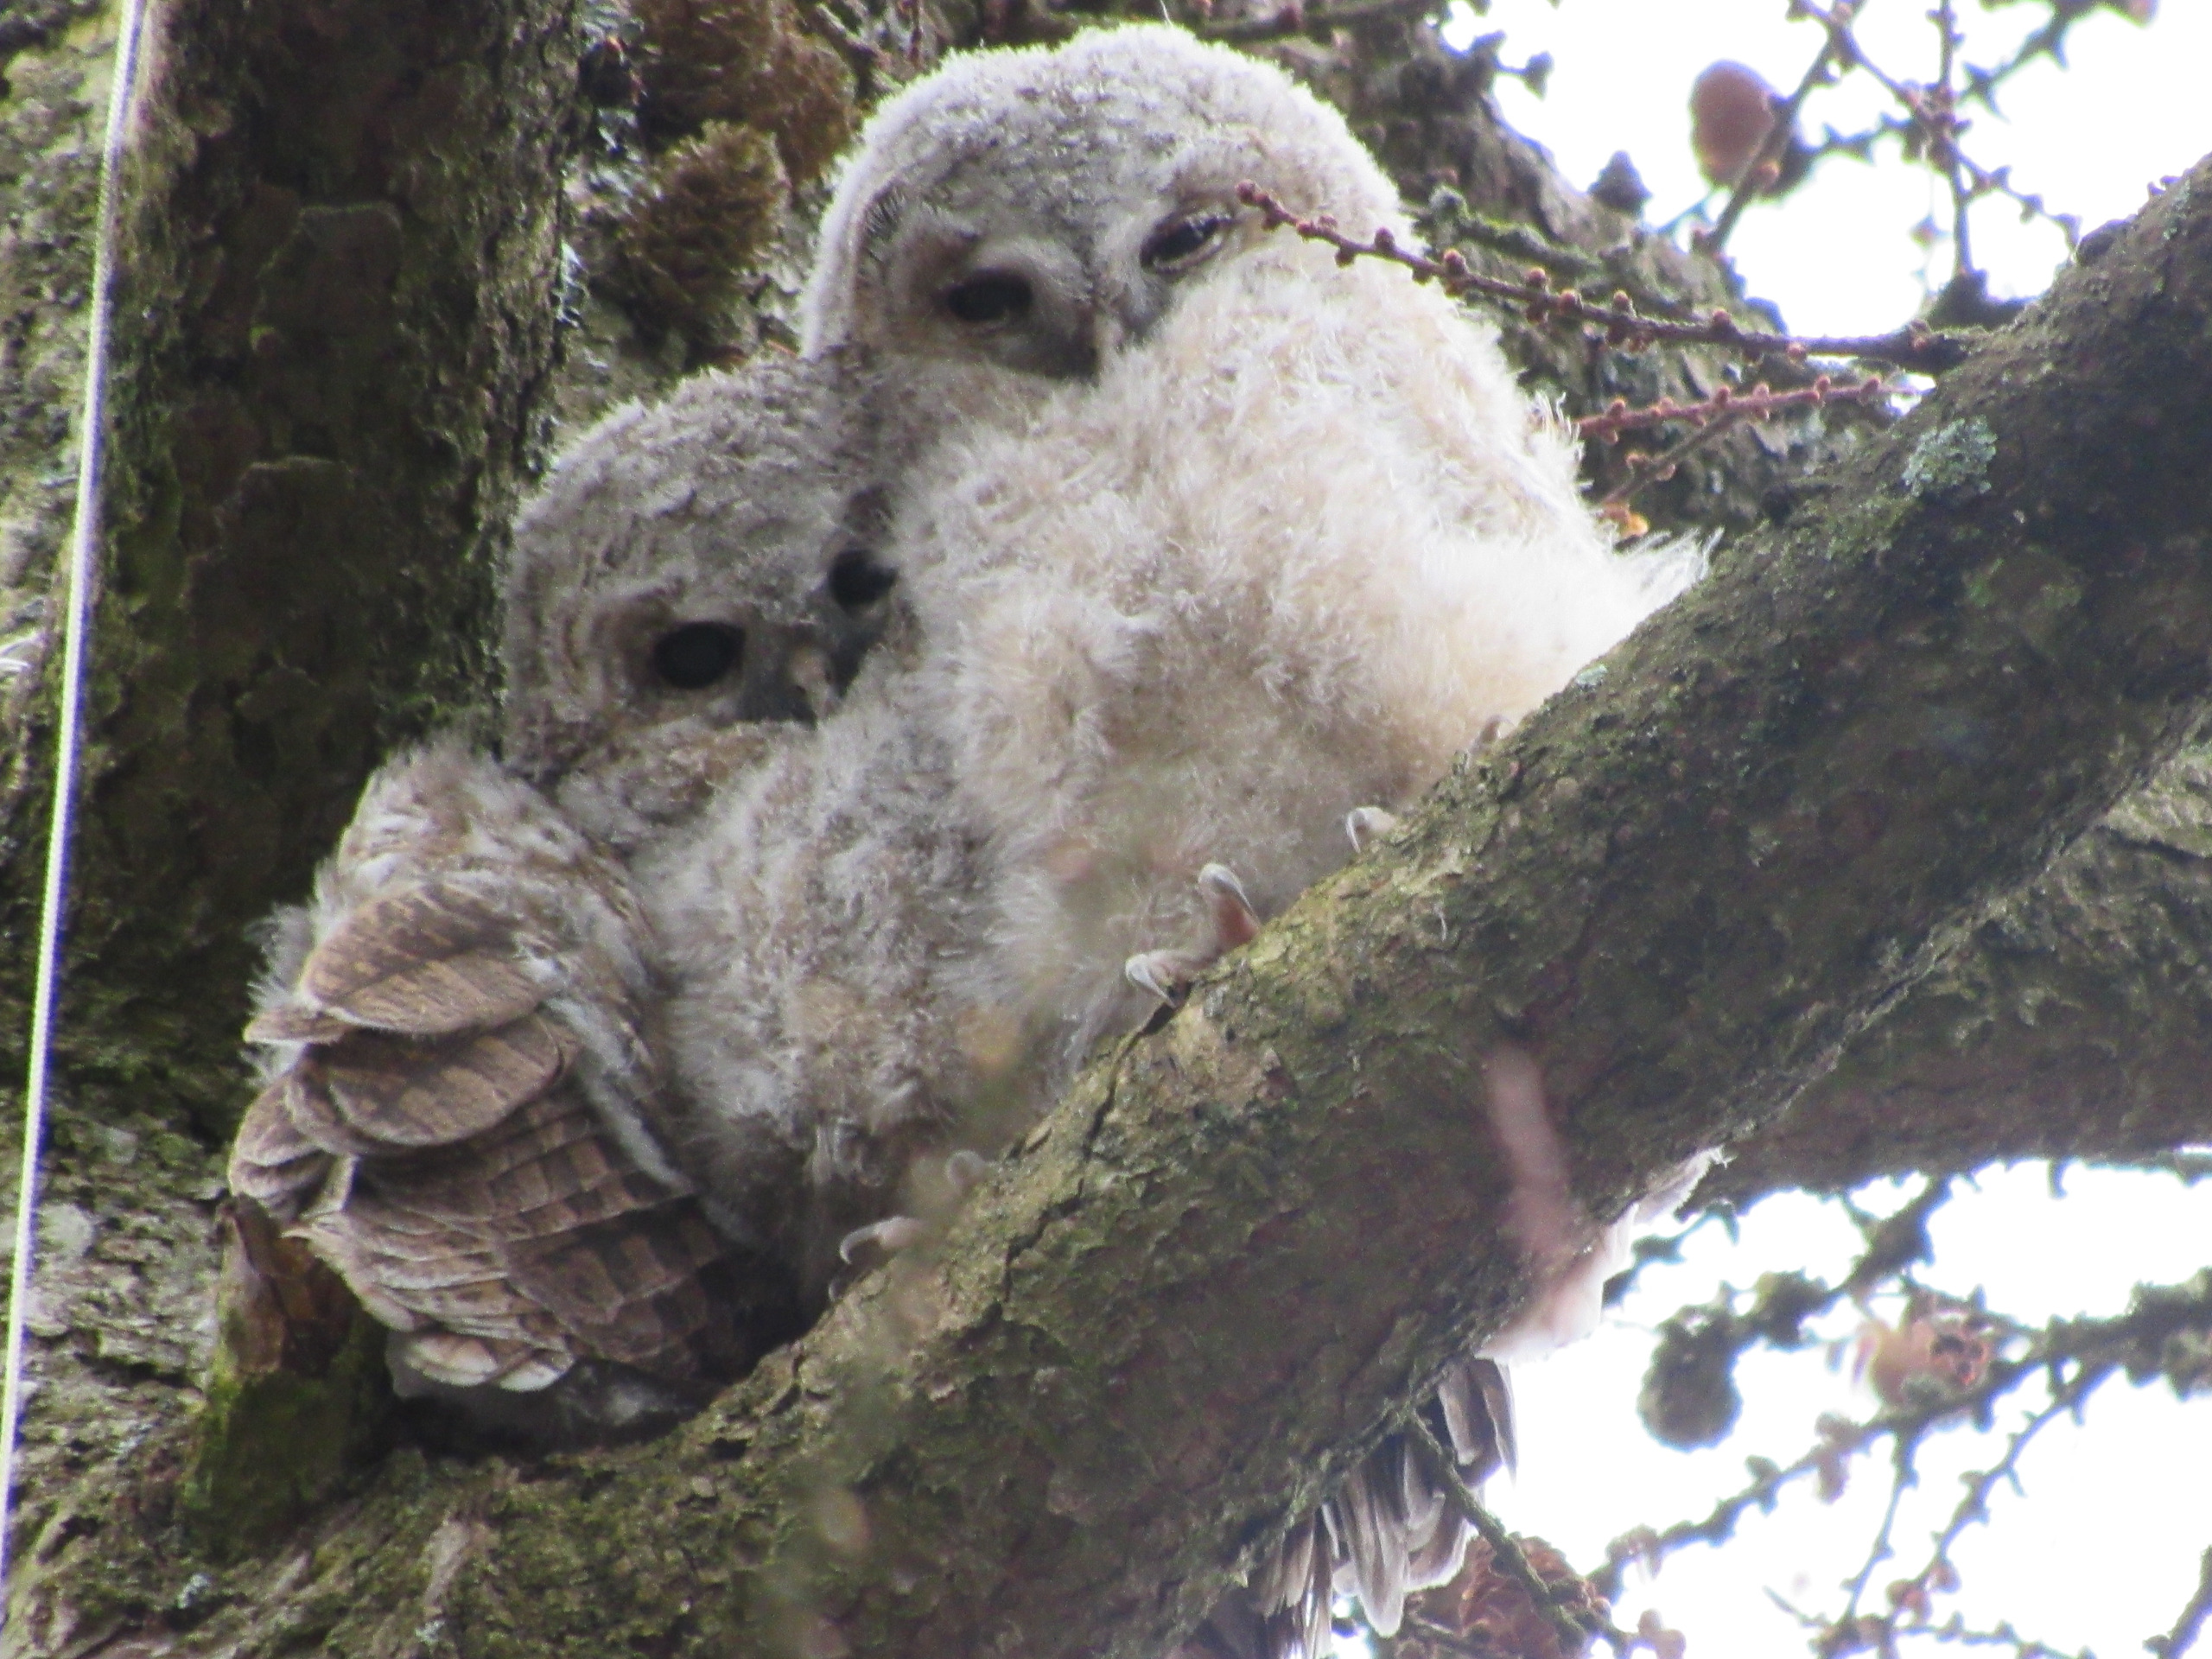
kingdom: Animalia
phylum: Chordata
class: Aves
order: Strigiformes
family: Strigidae
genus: Strix
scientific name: Strix aluco
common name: Natugle
